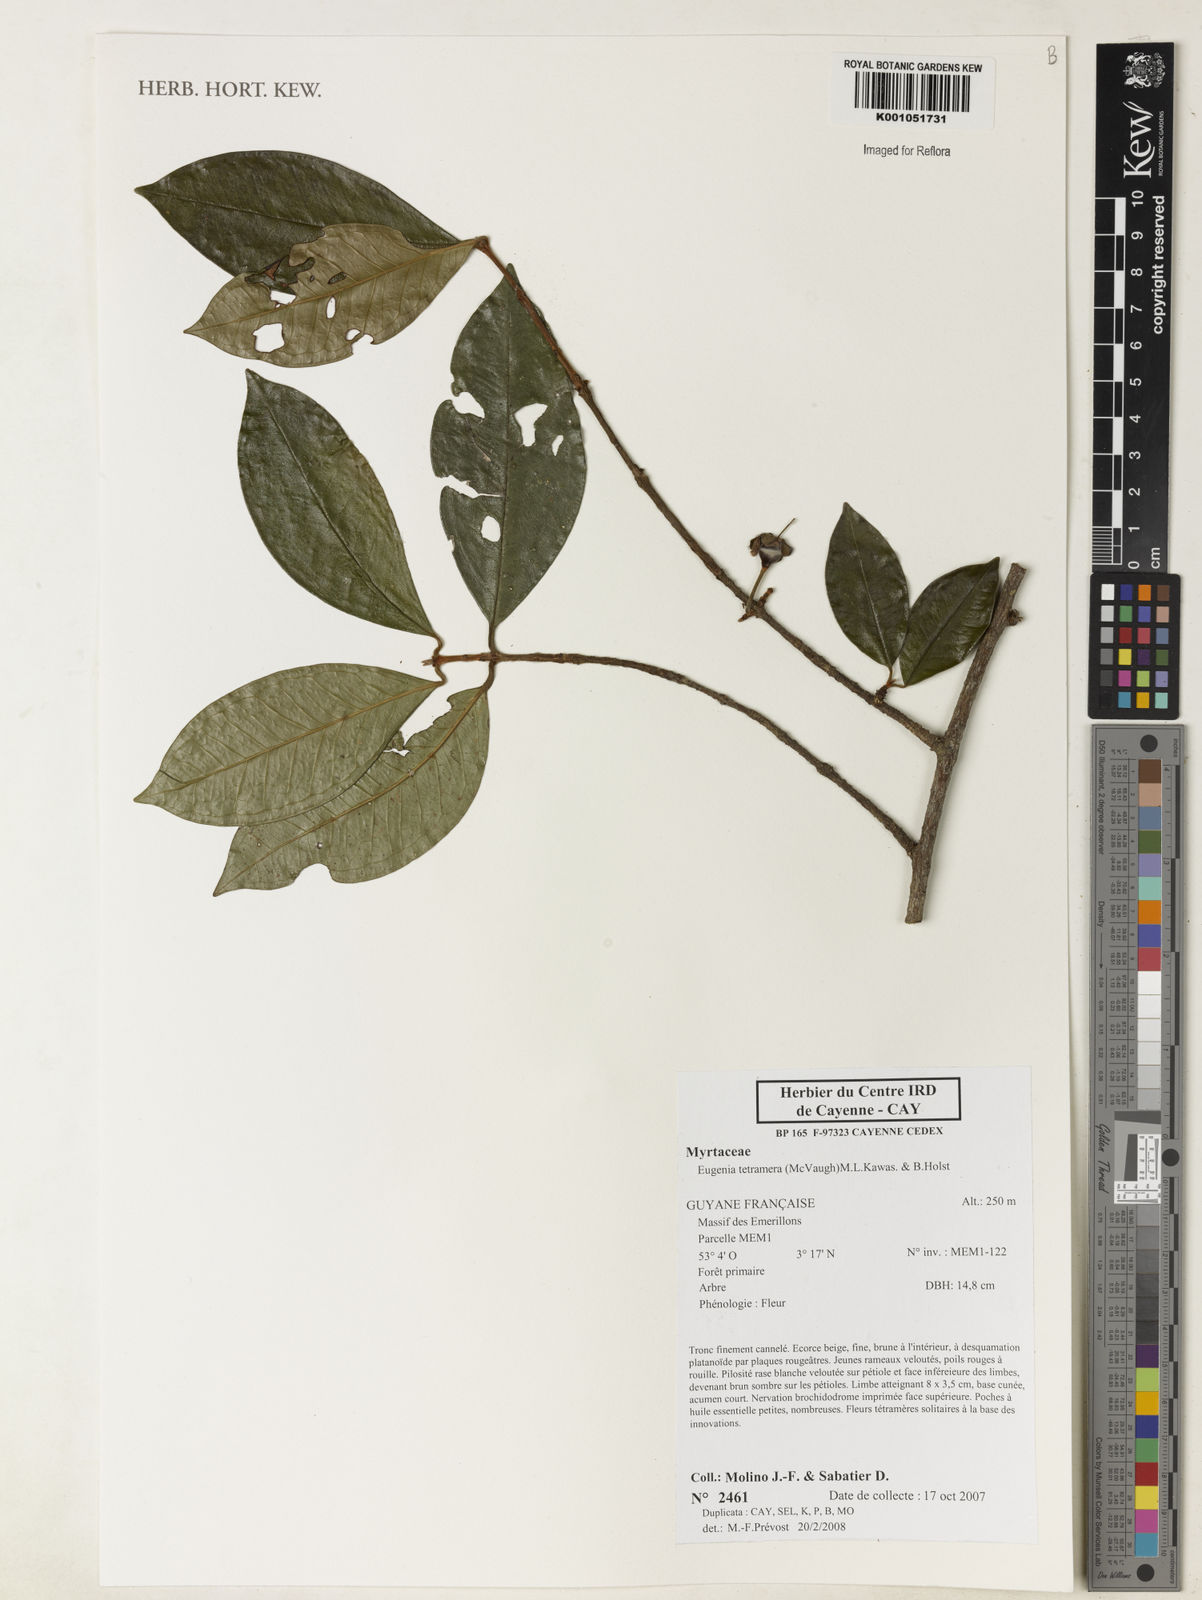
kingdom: Plantae
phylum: Tracheophyta
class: Magnoliopsida
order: Myrtales
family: Myrtaceae
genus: Eugenia
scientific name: Eugenia tetramera
